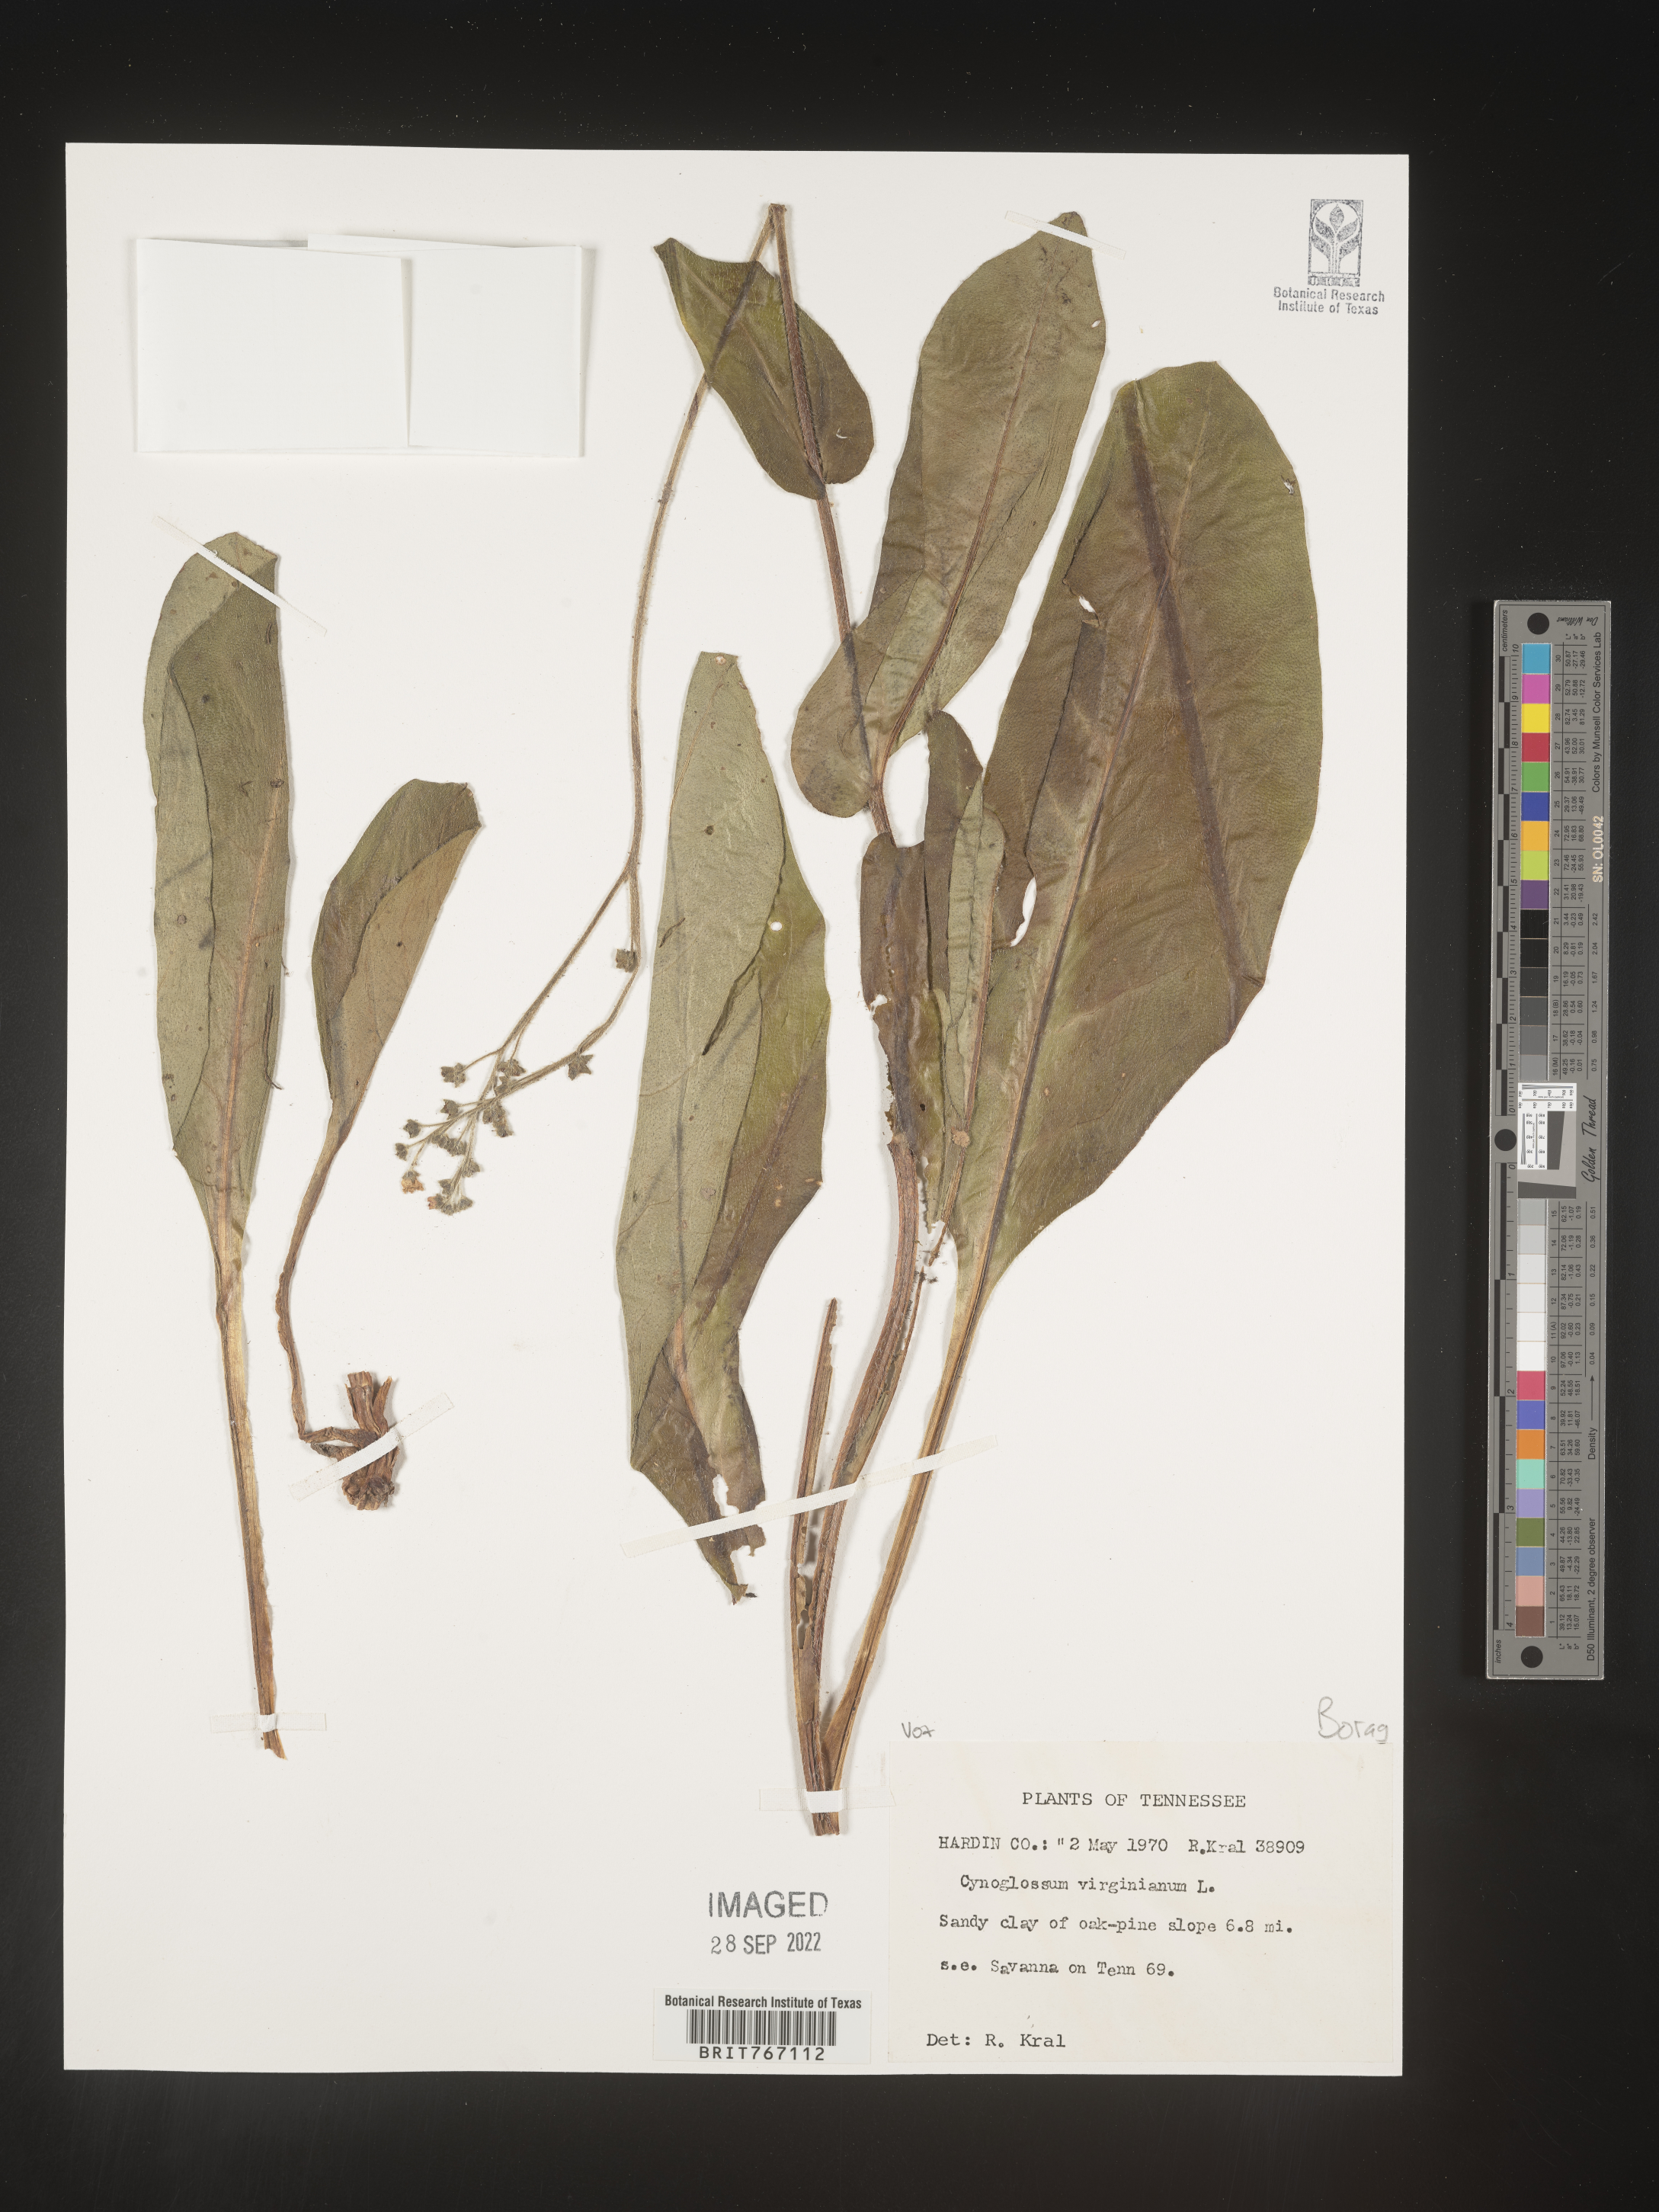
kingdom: Plantae
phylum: Tracheophyta
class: Magnoliopsida
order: Boraginales
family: Boraginaceae
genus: Andersonglossum
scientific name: Andersonglossum virginianum
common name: Wild comfrey
